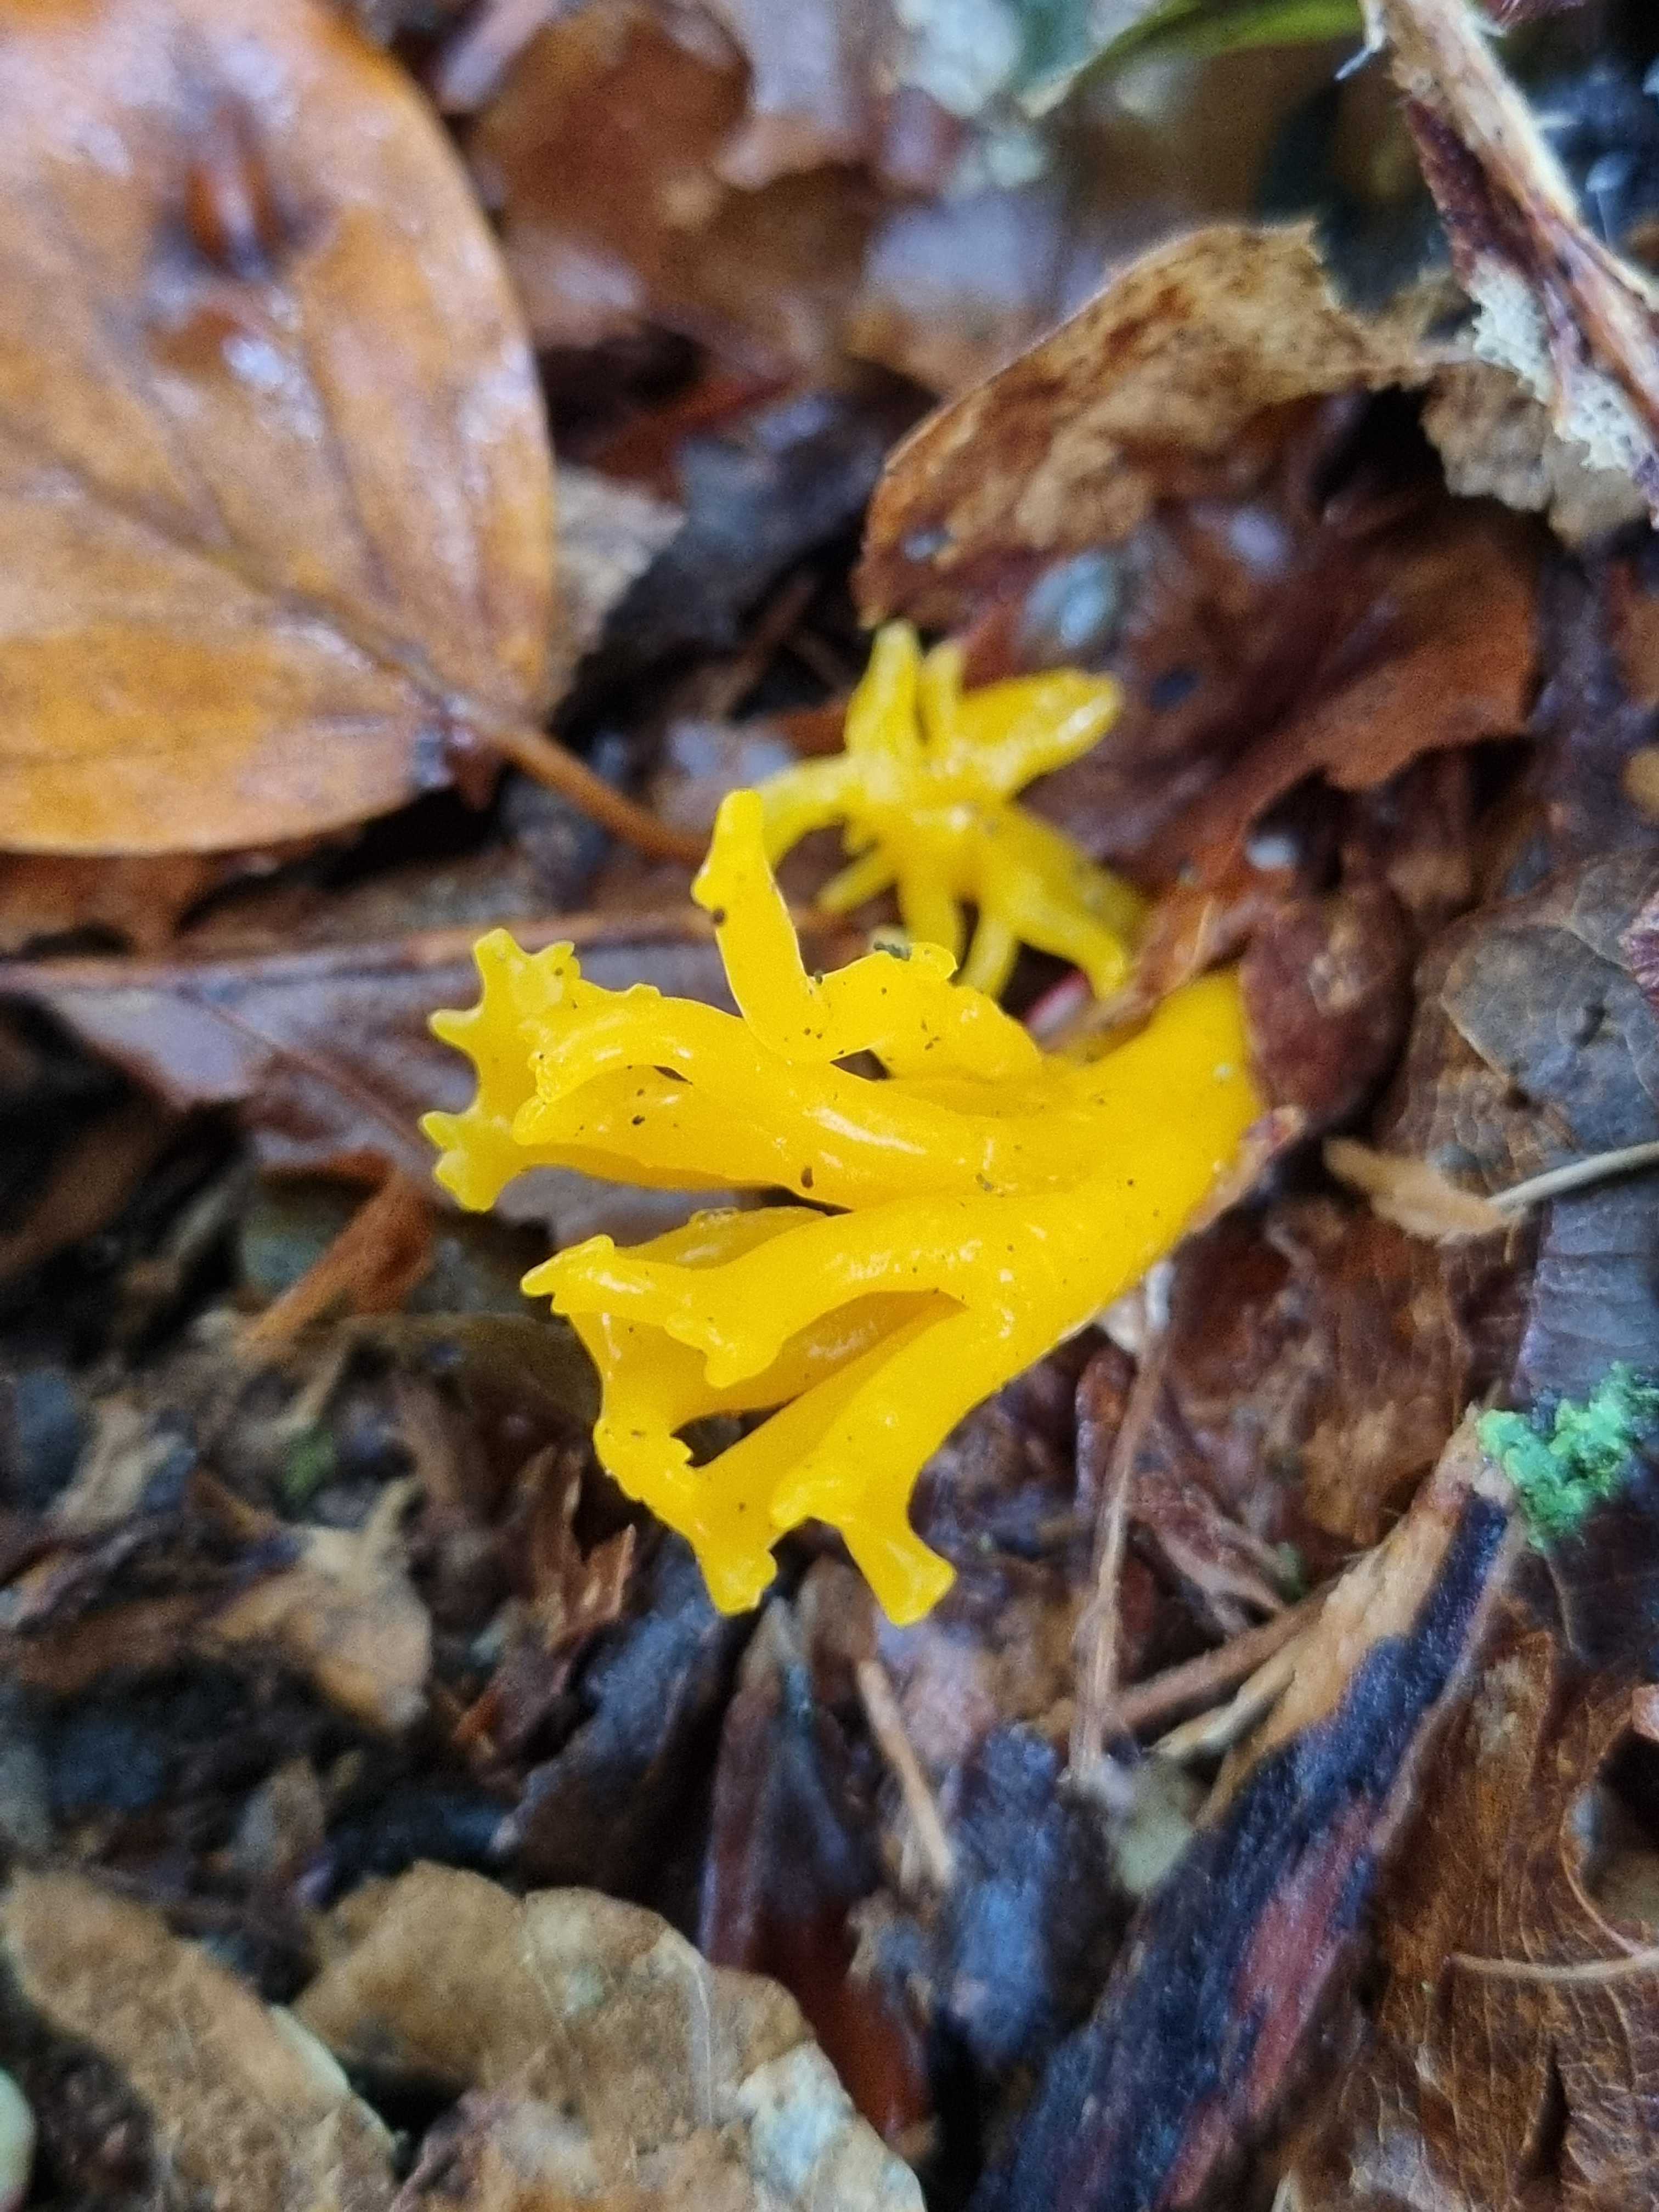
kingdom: Fungi
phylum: Basidiomycota
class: Dacrymycetes
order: Dacrymycetales
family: Dacrymycetaceae
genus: Calocera
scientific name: Calocera viscosa
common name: almindelig guldgaffel
